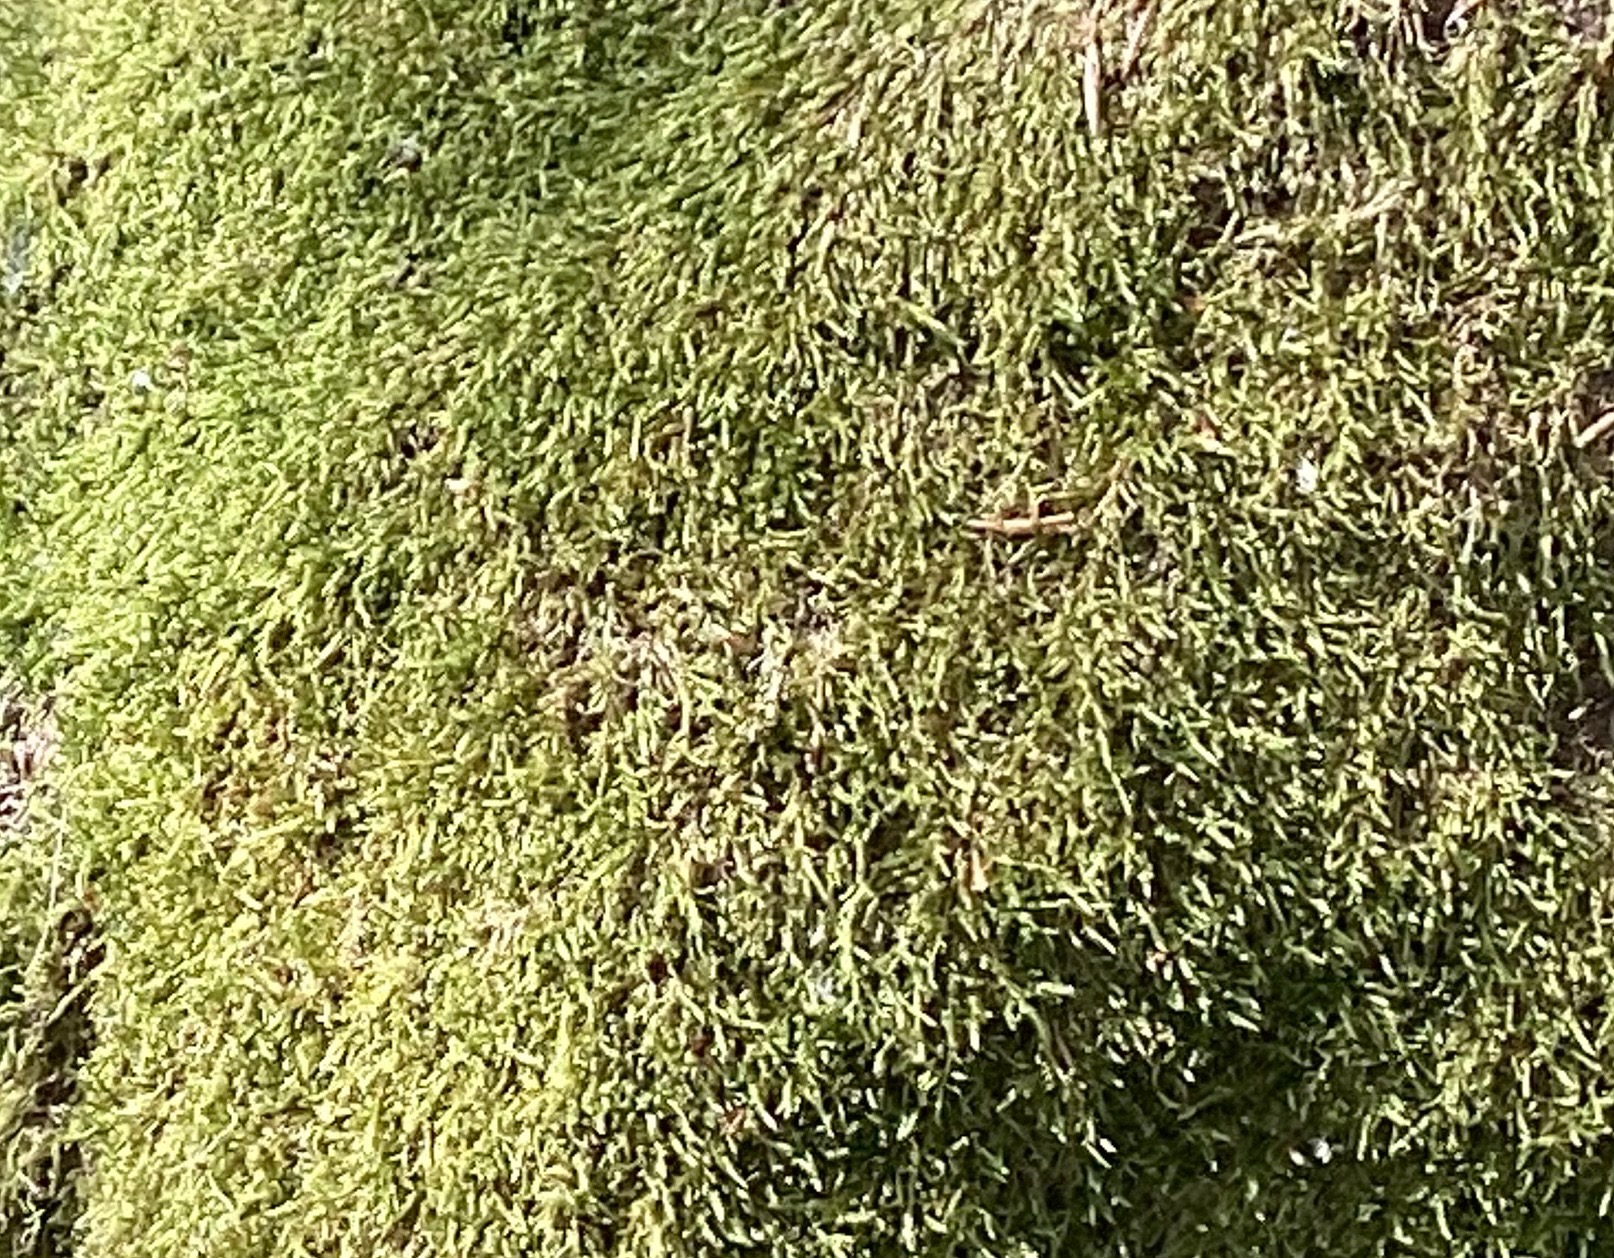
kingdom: Plantae
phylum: Bryophyta
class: Bryopsida
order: Hypnales
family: Hypnaceae
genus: Hypnum
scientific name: Hypnum
